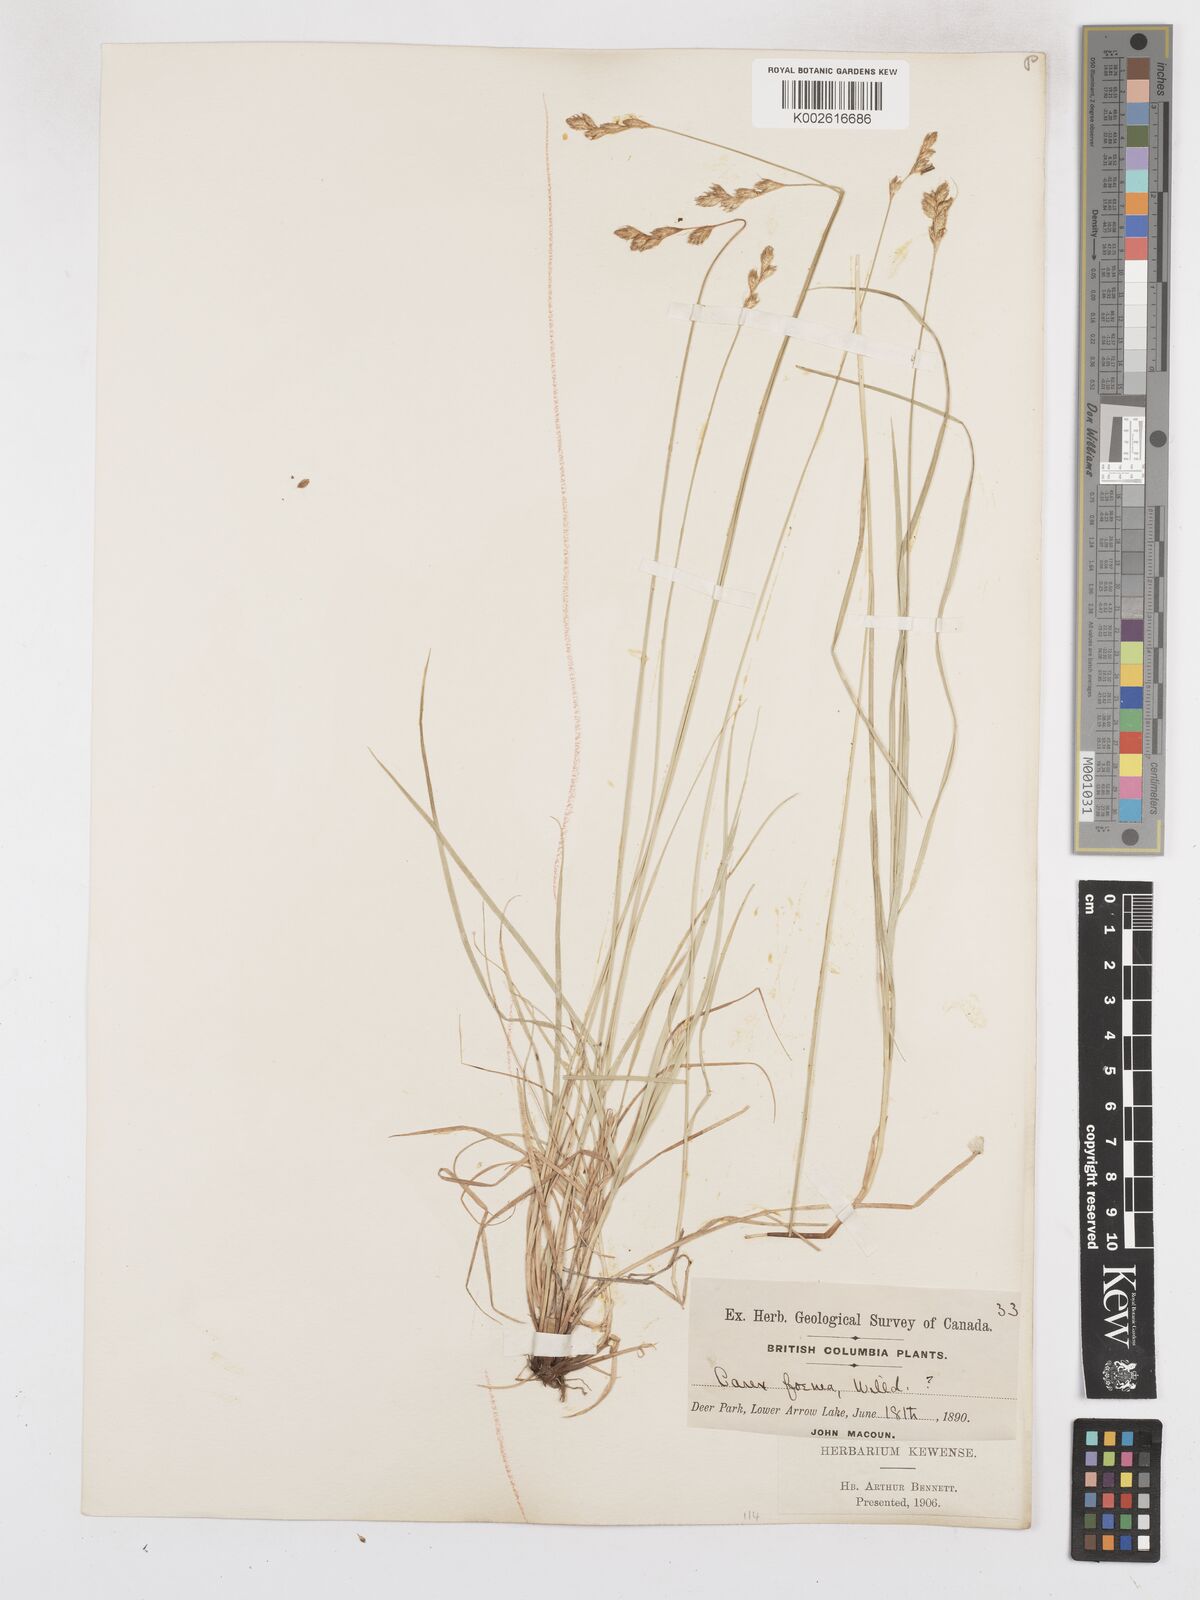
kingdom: Plantae
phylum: Tracheophyta
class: Liliopsida
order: Poales
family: Cyperaceae
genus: Carex
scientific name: Carex argyrantha
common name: Silvery-flowered sedge
